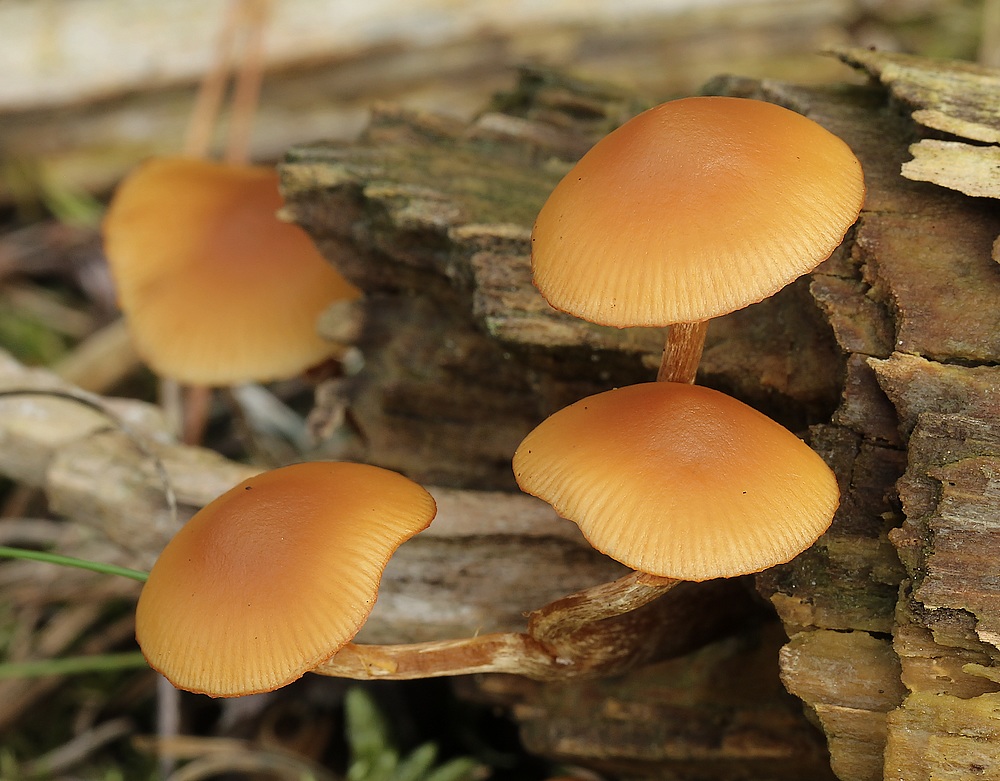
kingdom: Fungi
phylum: Basidiomycota
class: Agaricomycetes
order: Agaricales
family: Hymenogastraceae
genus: Galerina
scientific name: Galerina marginata
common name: randbæltet hjelmhat
